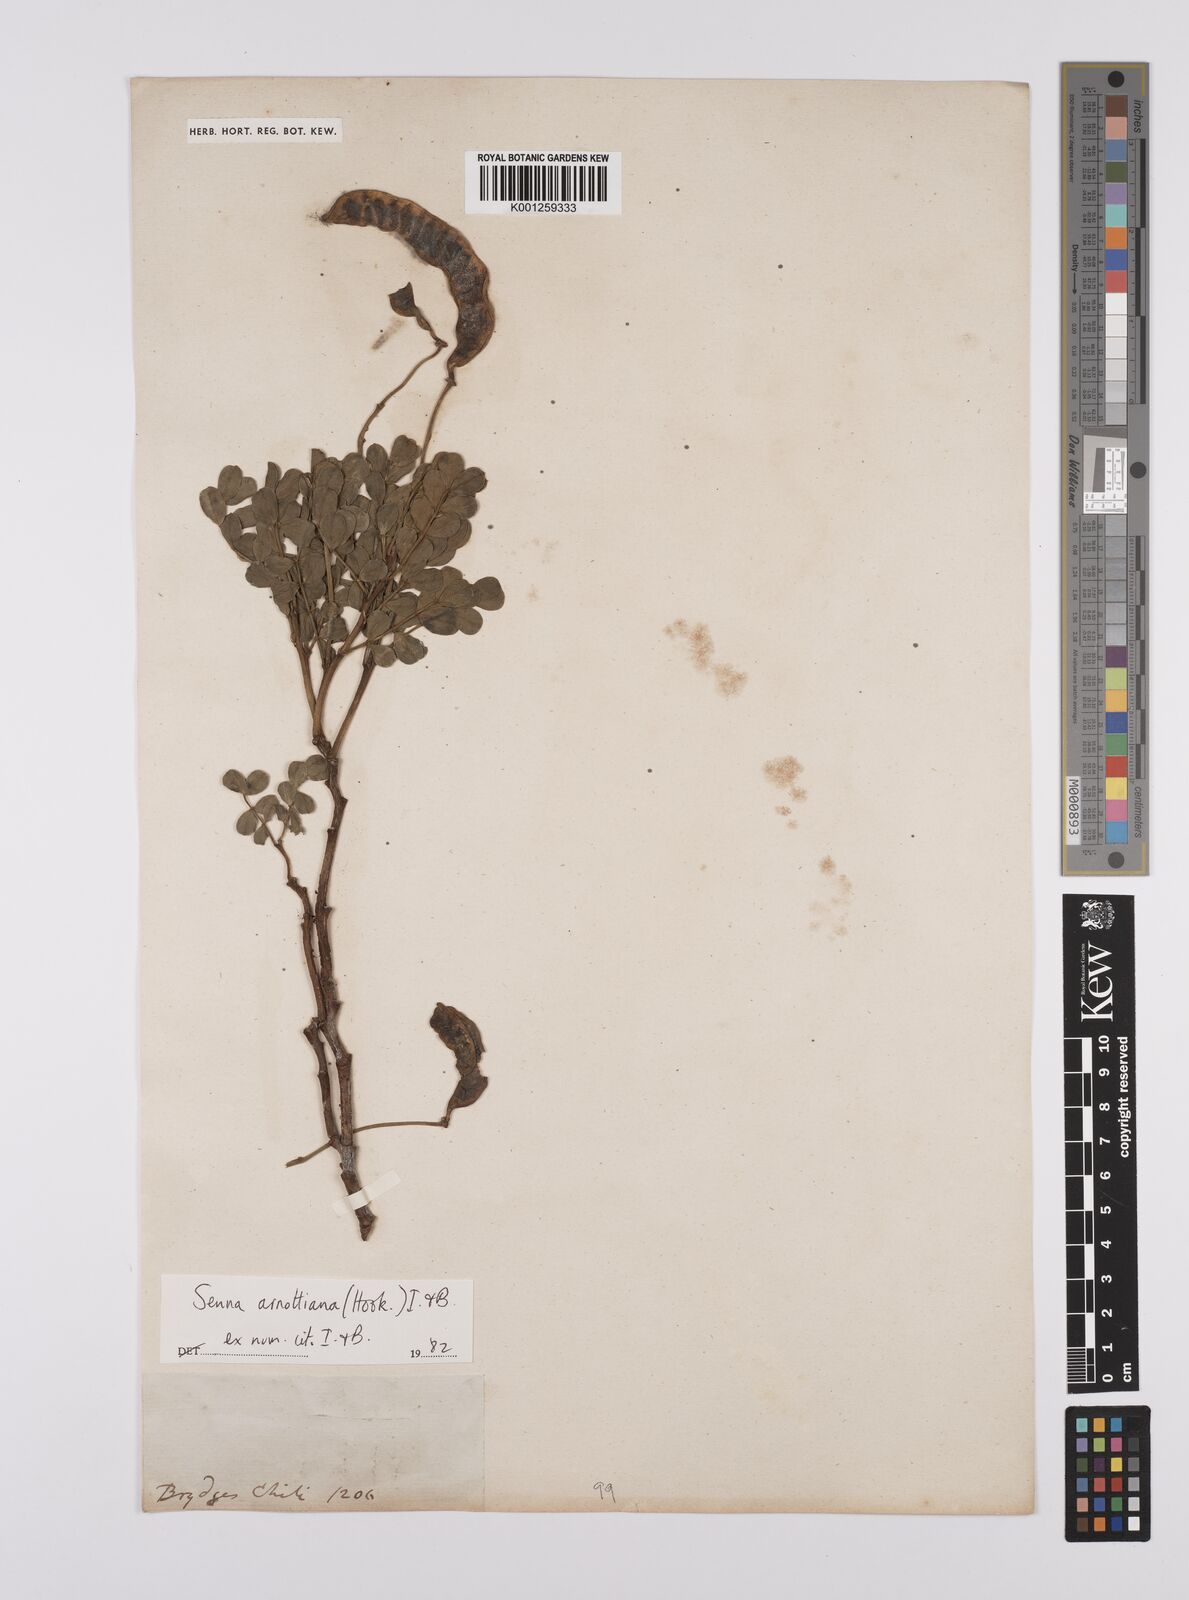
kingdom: Plantae
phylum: Tracheophyta
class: Magnoliopsida
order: Fabales
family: Fabaceae
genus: Senna
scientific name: Senna arnottiana
